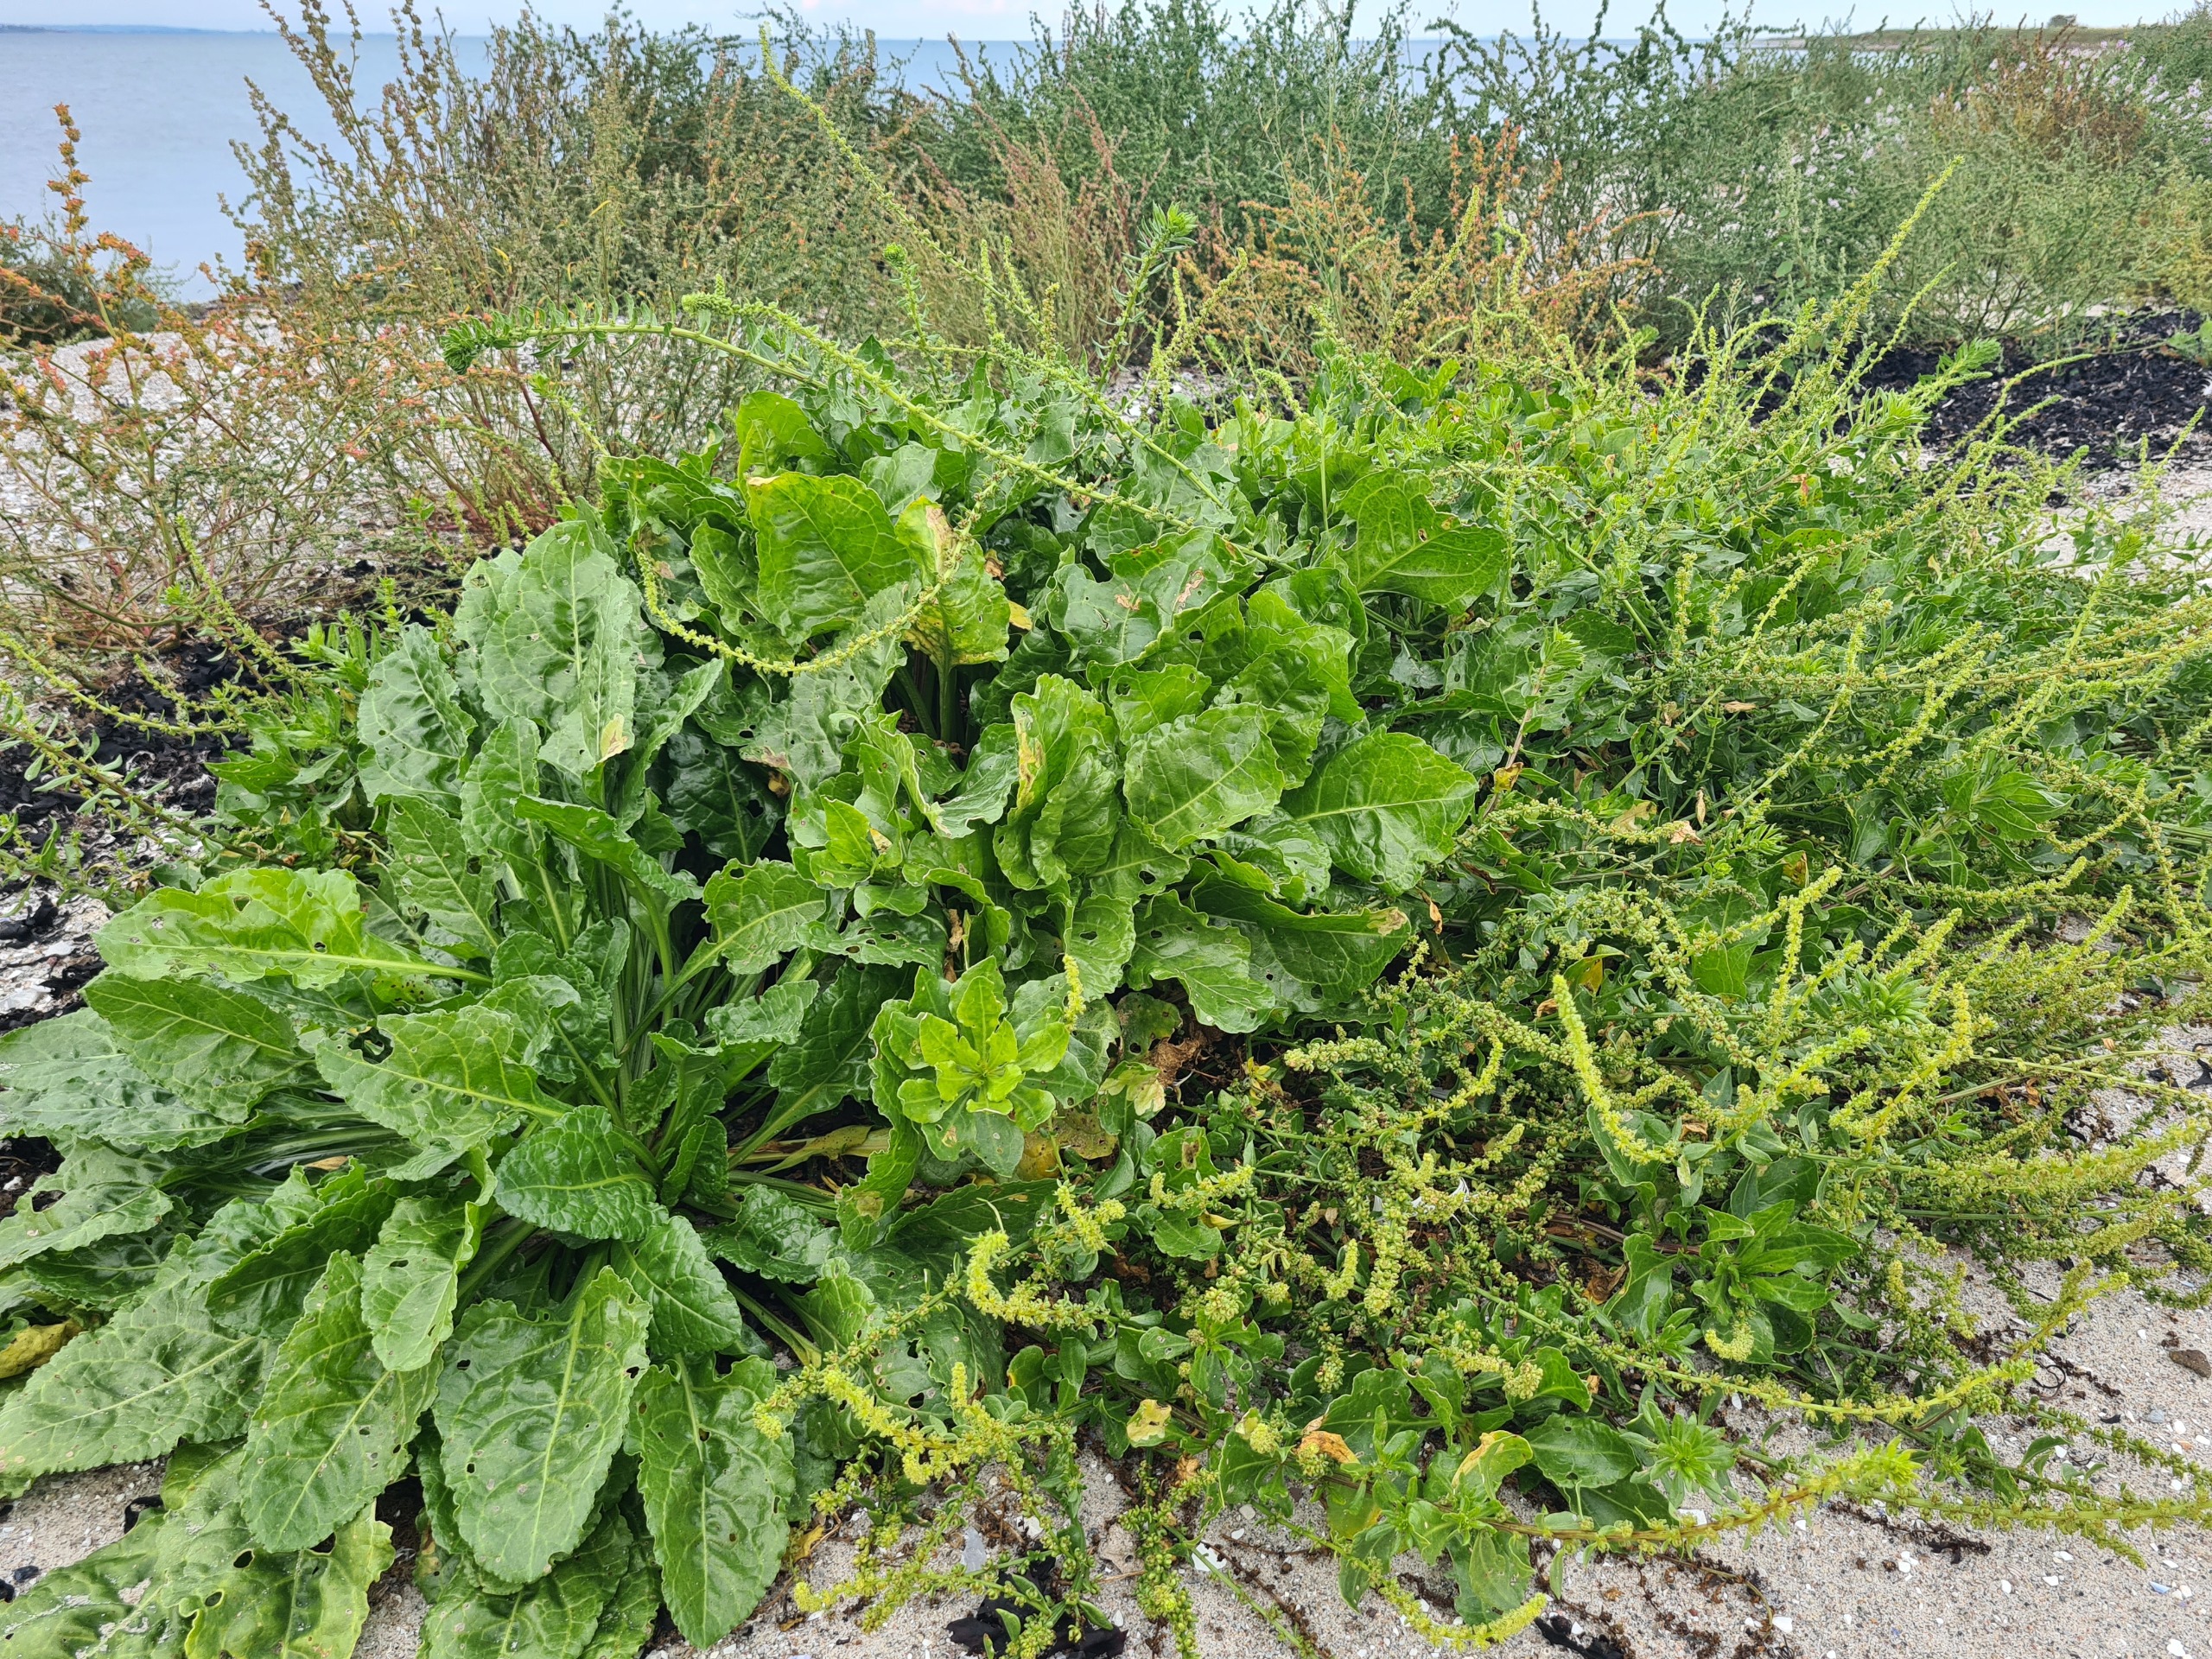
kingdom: Plantae
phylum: Tracheophyta
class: Magnoliopsida
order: Caryophyllales
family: Amaranthaceae
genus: Beta
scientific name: Beta maritima
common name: Strand-bede
